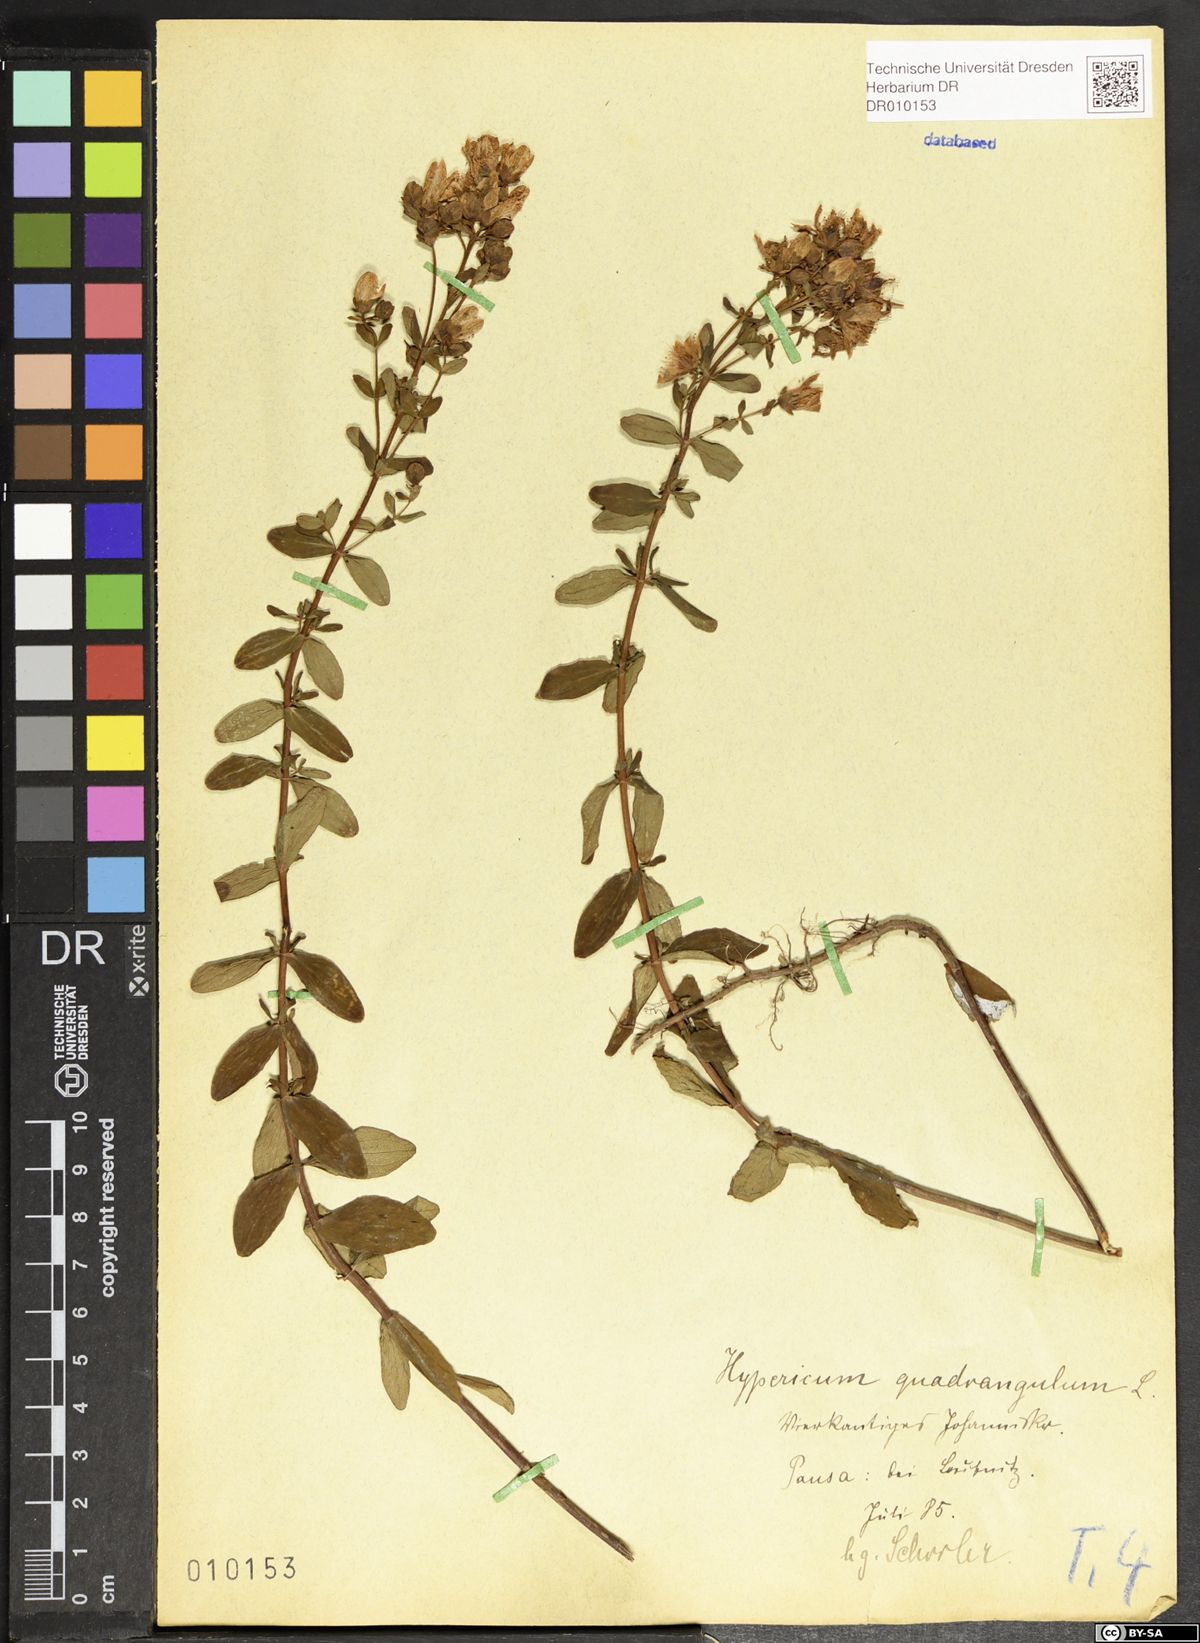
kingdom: Plantae
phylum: Tracheophyta
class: Magnoliopsida
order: Malpighiales
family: Hypericaceae
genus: Hypericum
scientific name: Hypericum maculatum
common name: Imperforate st. john's-wort
